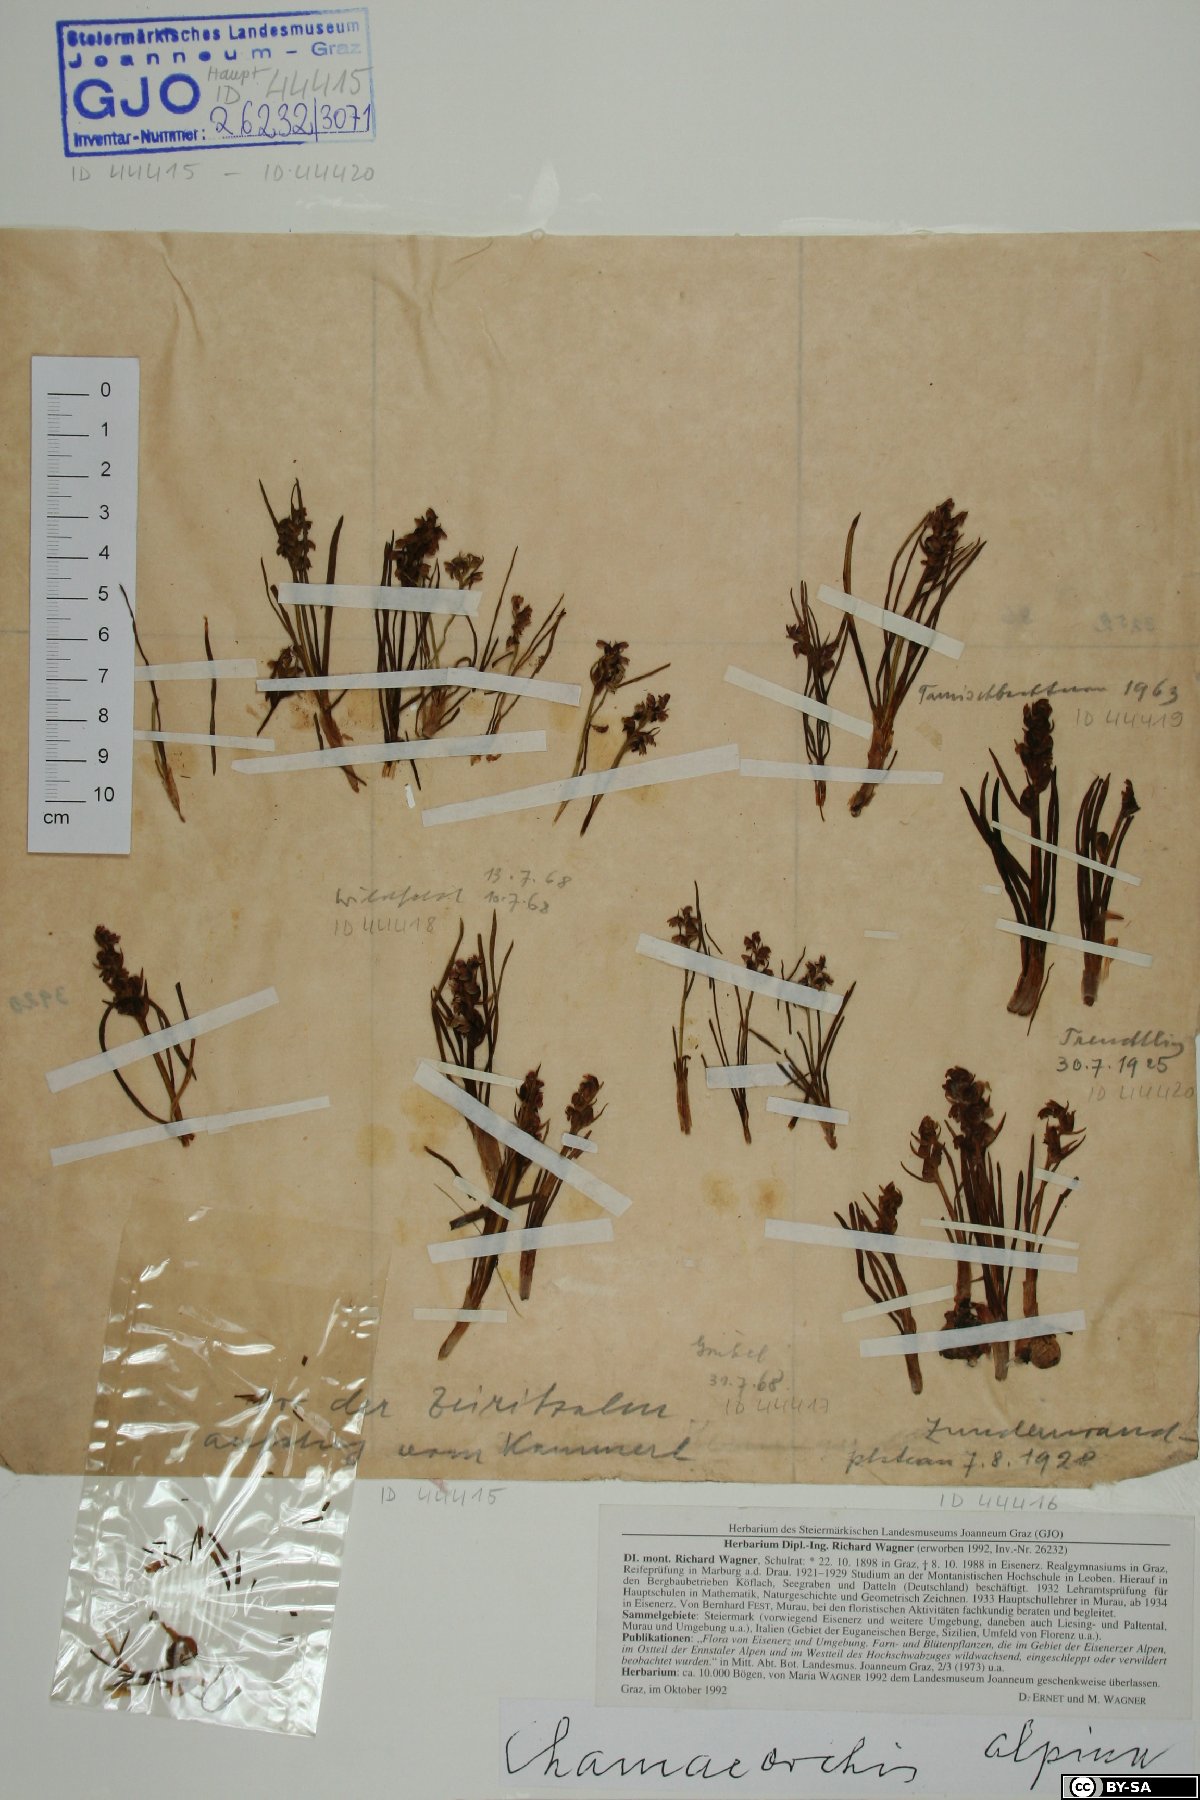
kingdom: Plantae
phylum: Tracheophyta
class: Liliopsida
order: Asparagales
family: Orchidaceae
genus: Chamorchis
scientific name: Chamorchis alpina
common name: Alpine chamorchis
